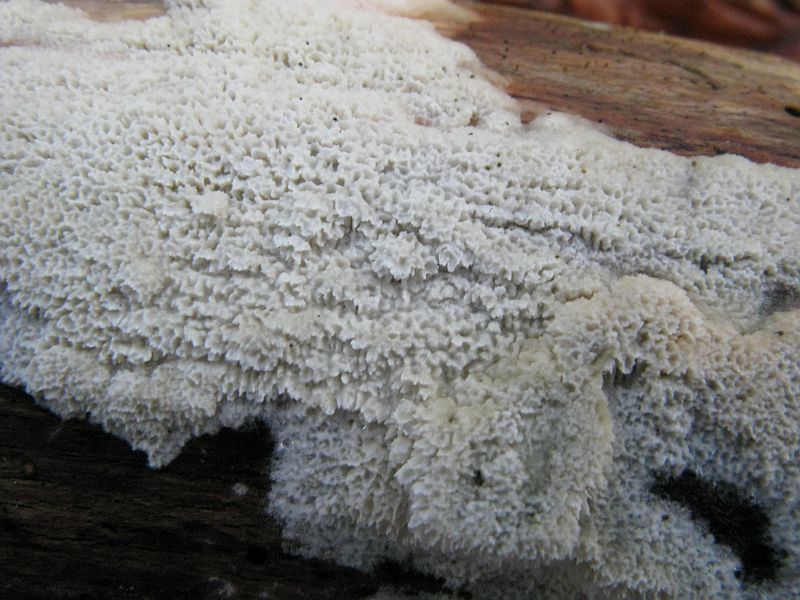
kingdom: Fungi
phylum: Basidiomycota
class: Agaricomycetes
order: Hymenochaetales
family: Schizoporaceae
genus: Xylodon
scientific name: Xylodon
